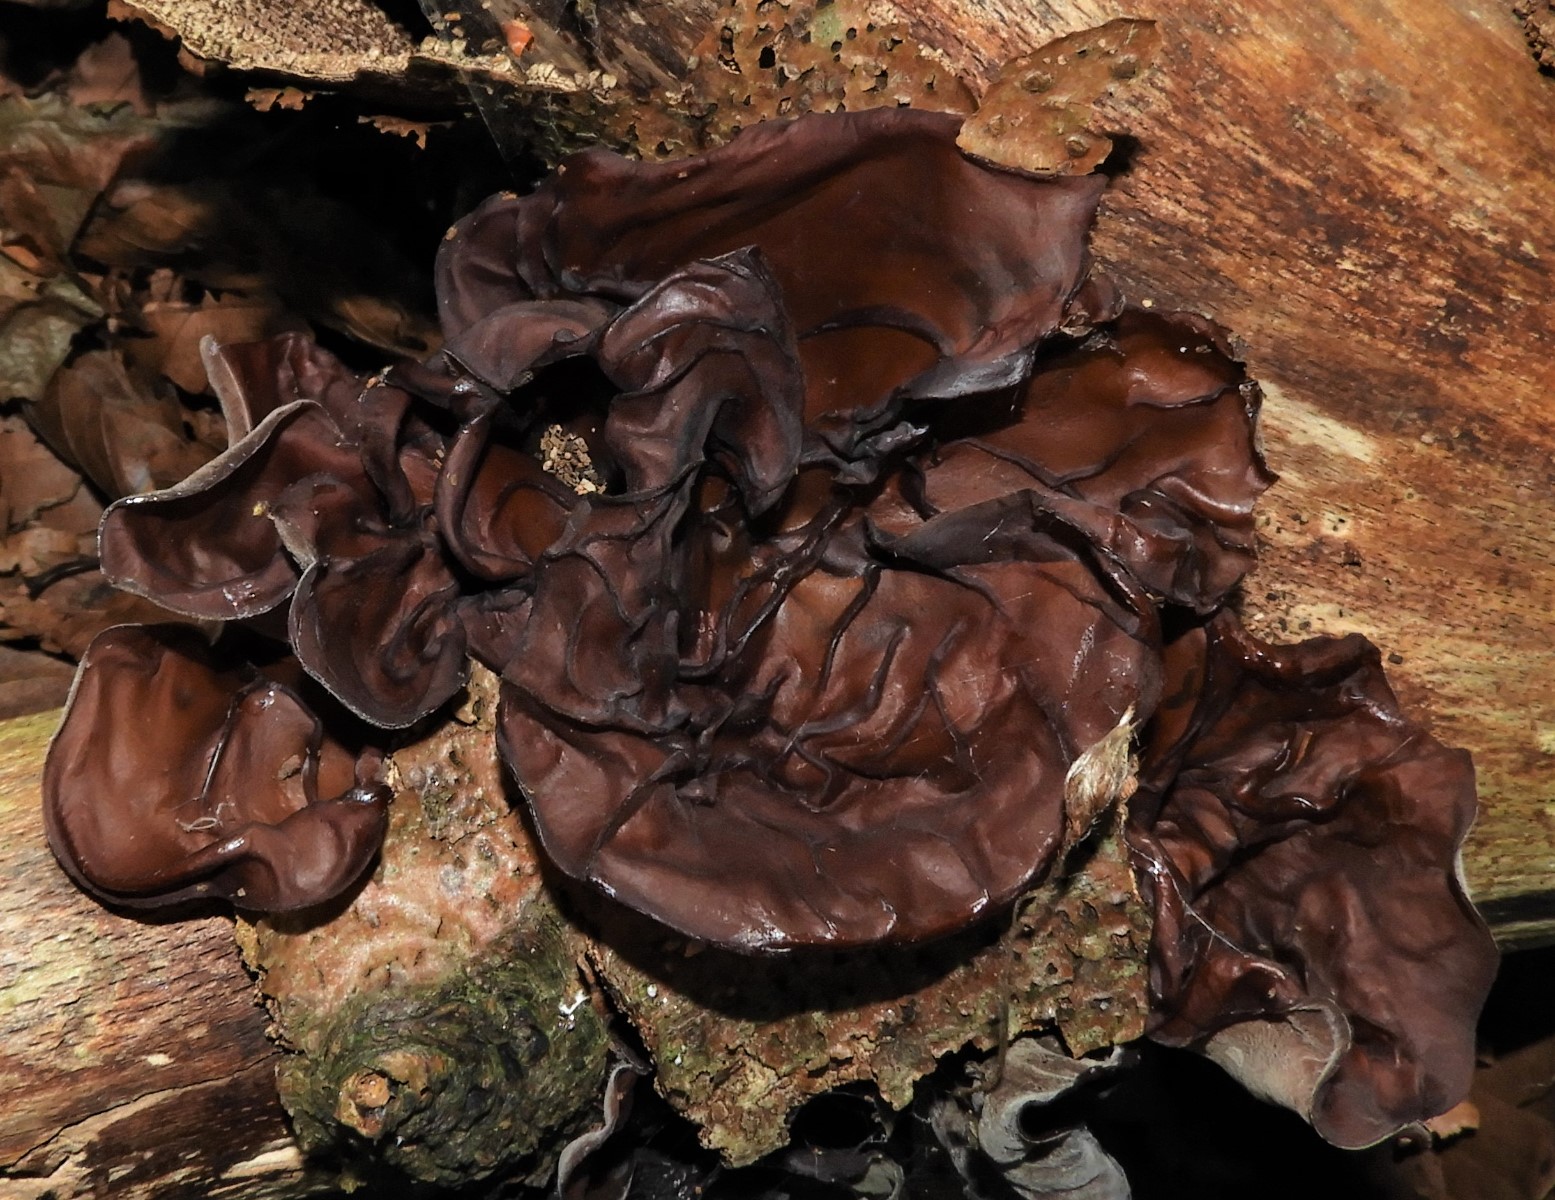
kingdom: Fungi
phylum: Basidiomycota
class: Agaricomycetes
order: Auriculariales
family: Auriculariaceae
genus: Auricularia
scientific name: Auricularia auricula-judae
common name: almindelig judasøre
